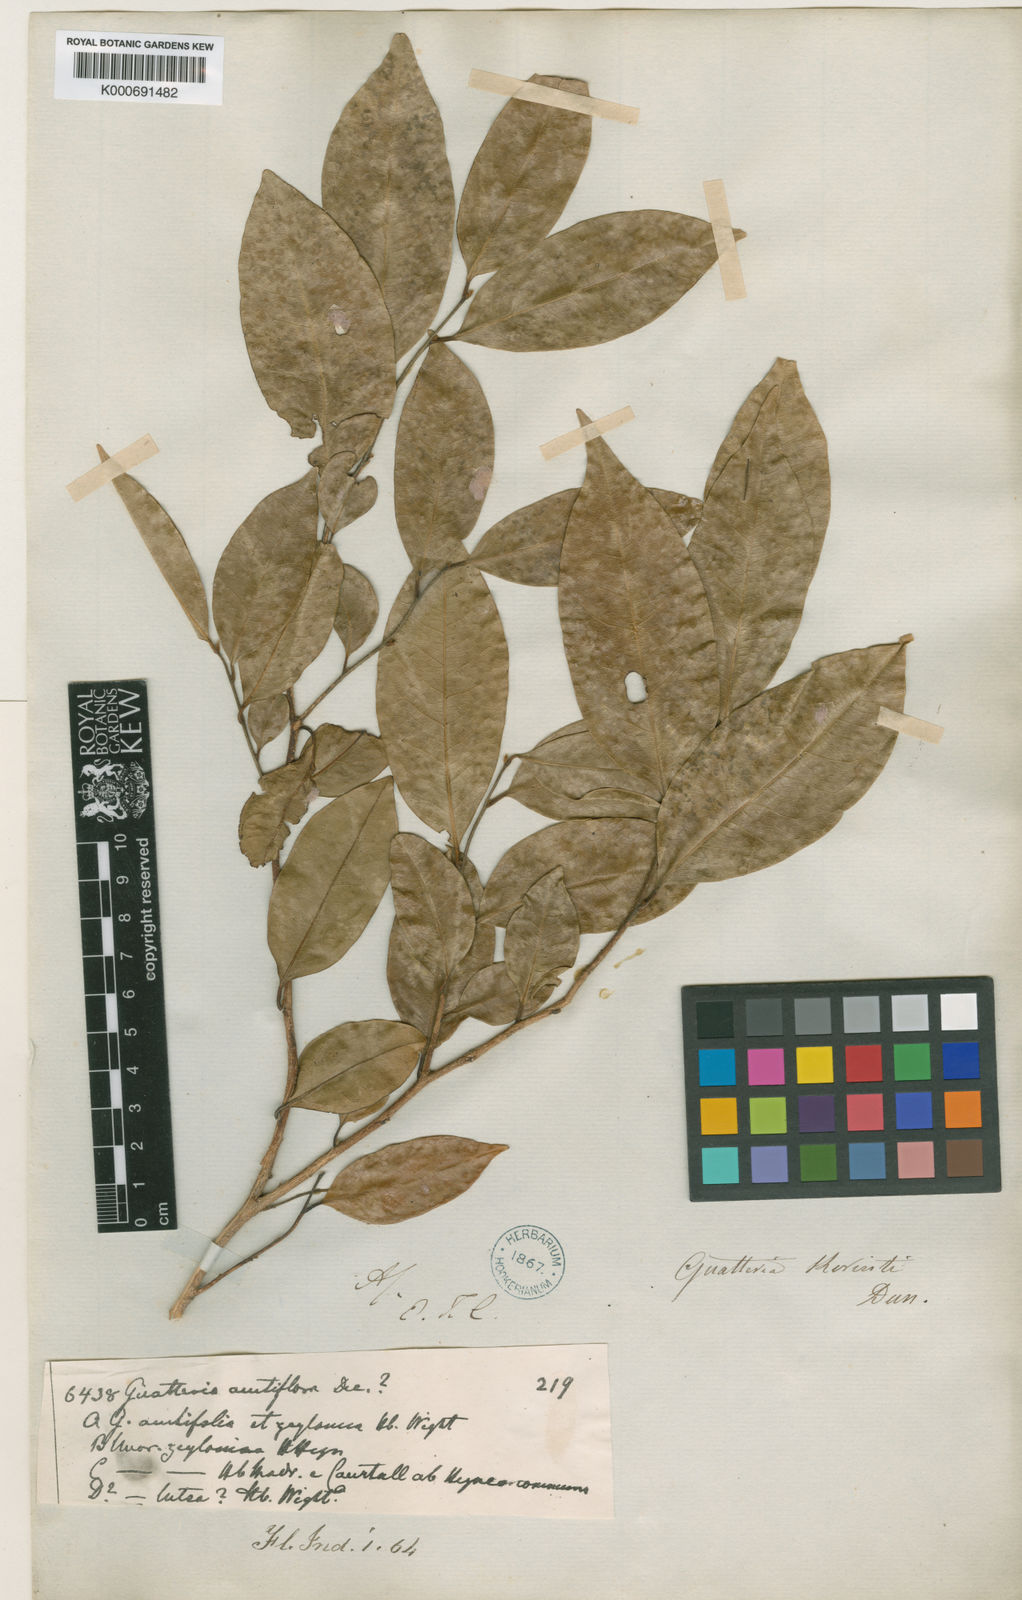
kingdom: Plantae
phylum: Tracheophyta
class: Magnoliopsida
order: Magnoliales
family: Annonaceae
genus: Polyalthia
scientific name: Polyalthia
